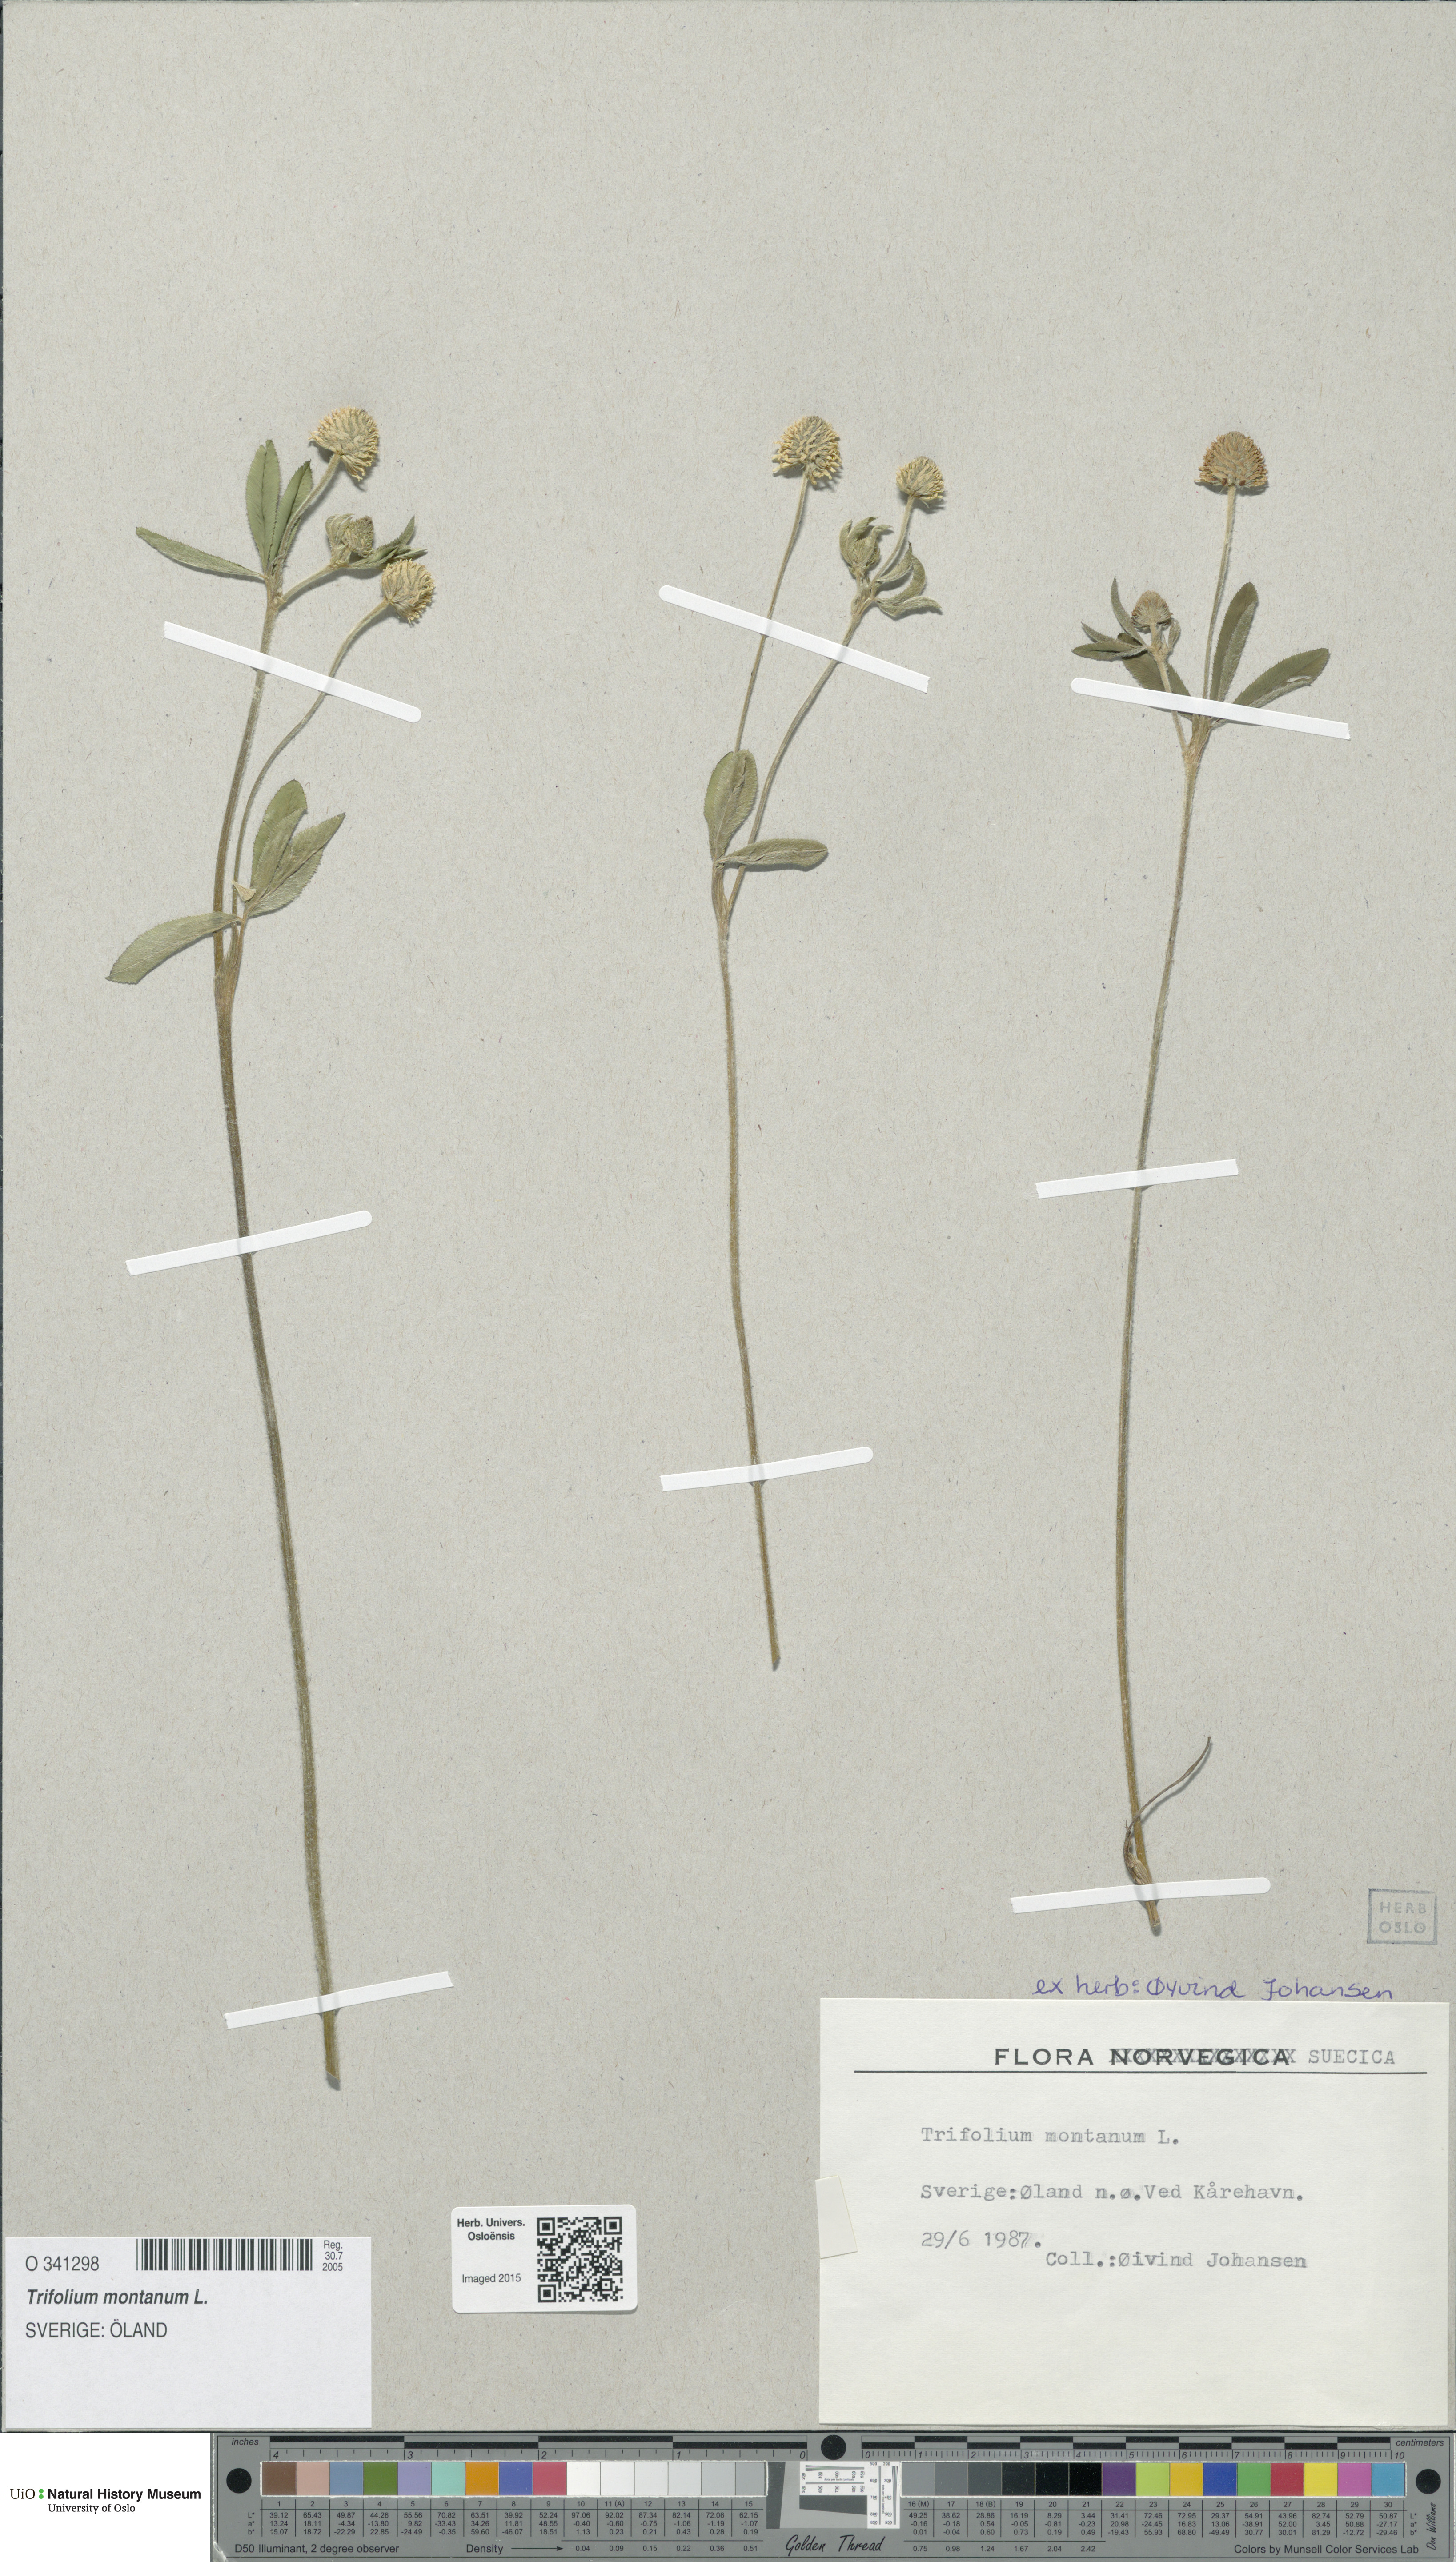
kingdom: Plantae
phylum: Tracheophyta
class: Magnoliopsida
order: Fabales
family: Fabaceae
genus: Trifolium
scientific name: Trifolium montanum
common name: Mountain clover
